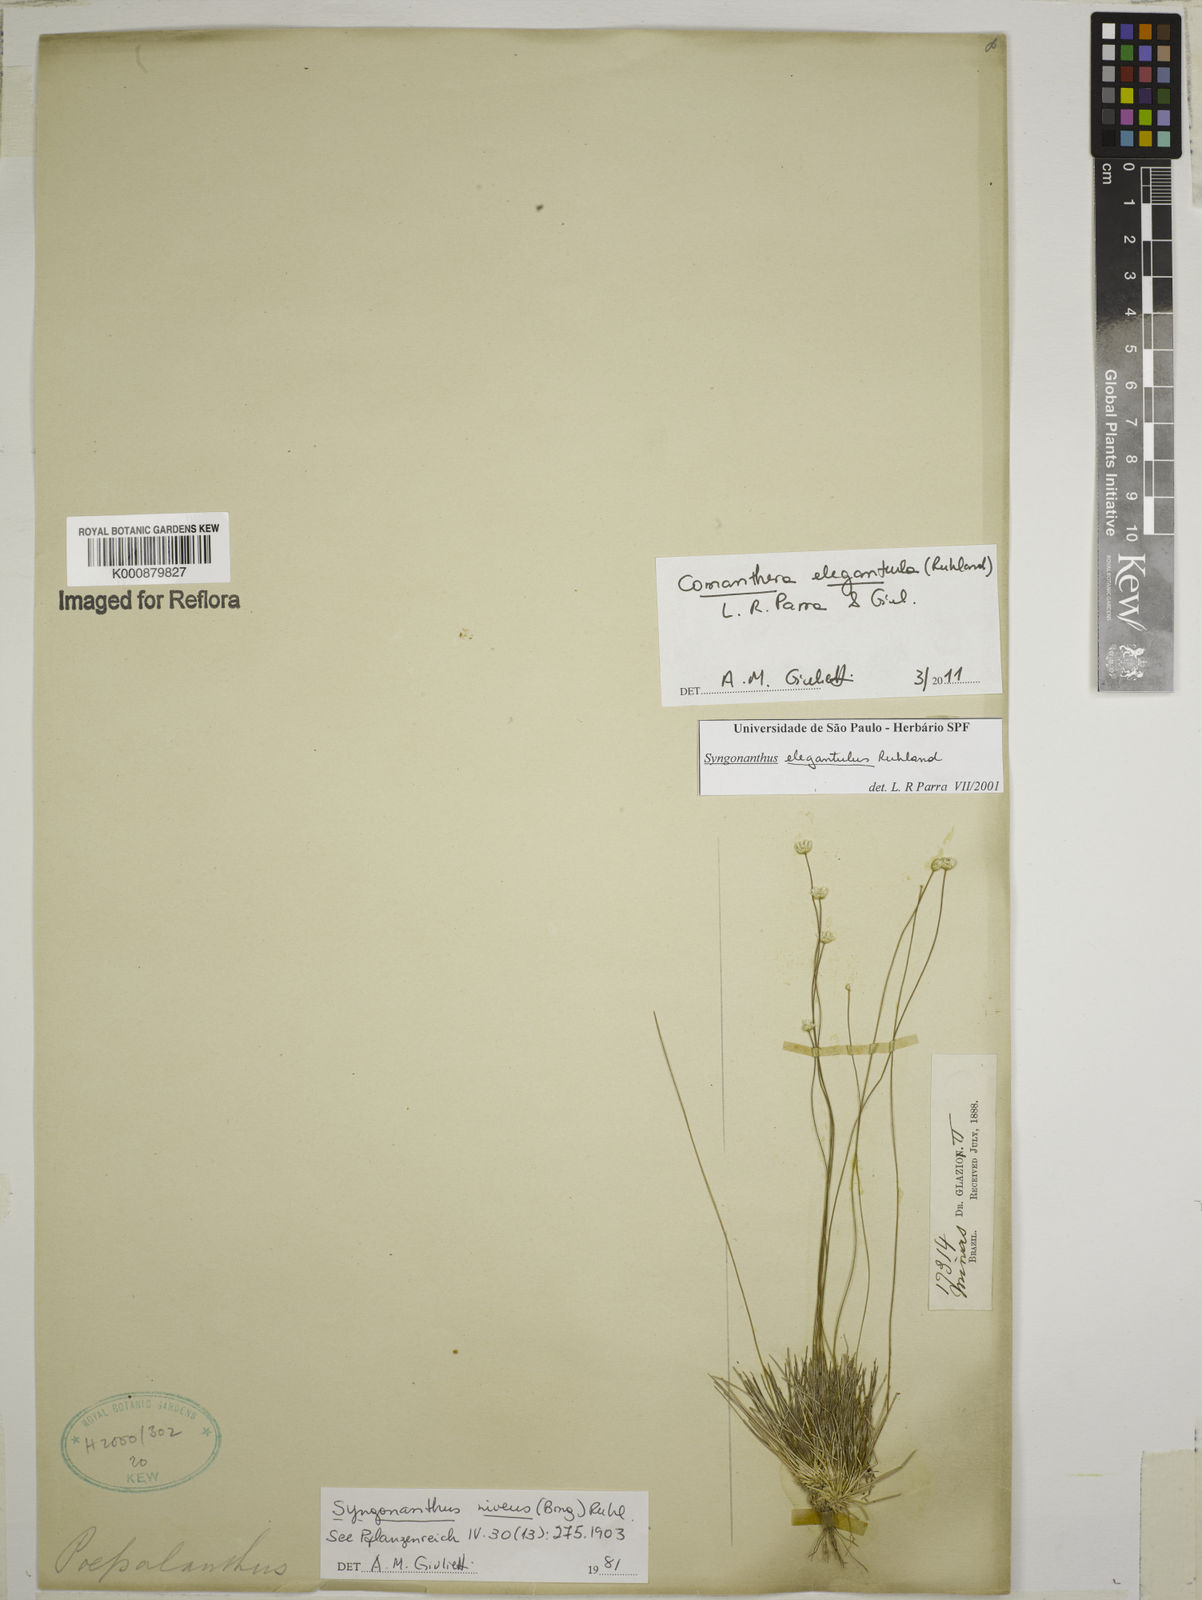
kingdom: Plantae
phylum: Tracheophyta
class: Liliopsida
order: Poales
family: Eriocaulaceae
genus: Comanthera
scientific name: Comanthera elegantula
